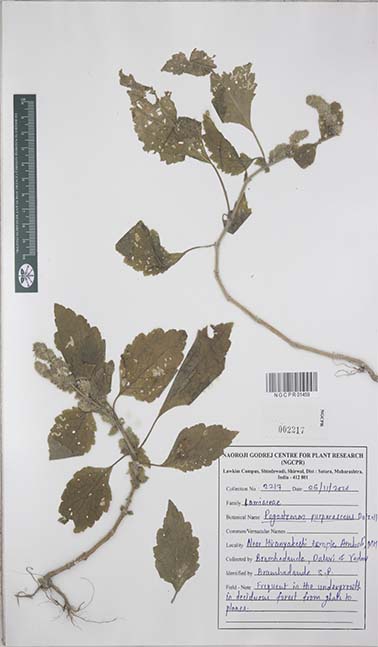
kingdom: Plantae
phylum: Tracheophyta
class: Magnoliopsida
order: Lamiales
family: Lamiaceae
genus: Pogostemon
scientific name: Pogostemon purpurascens
